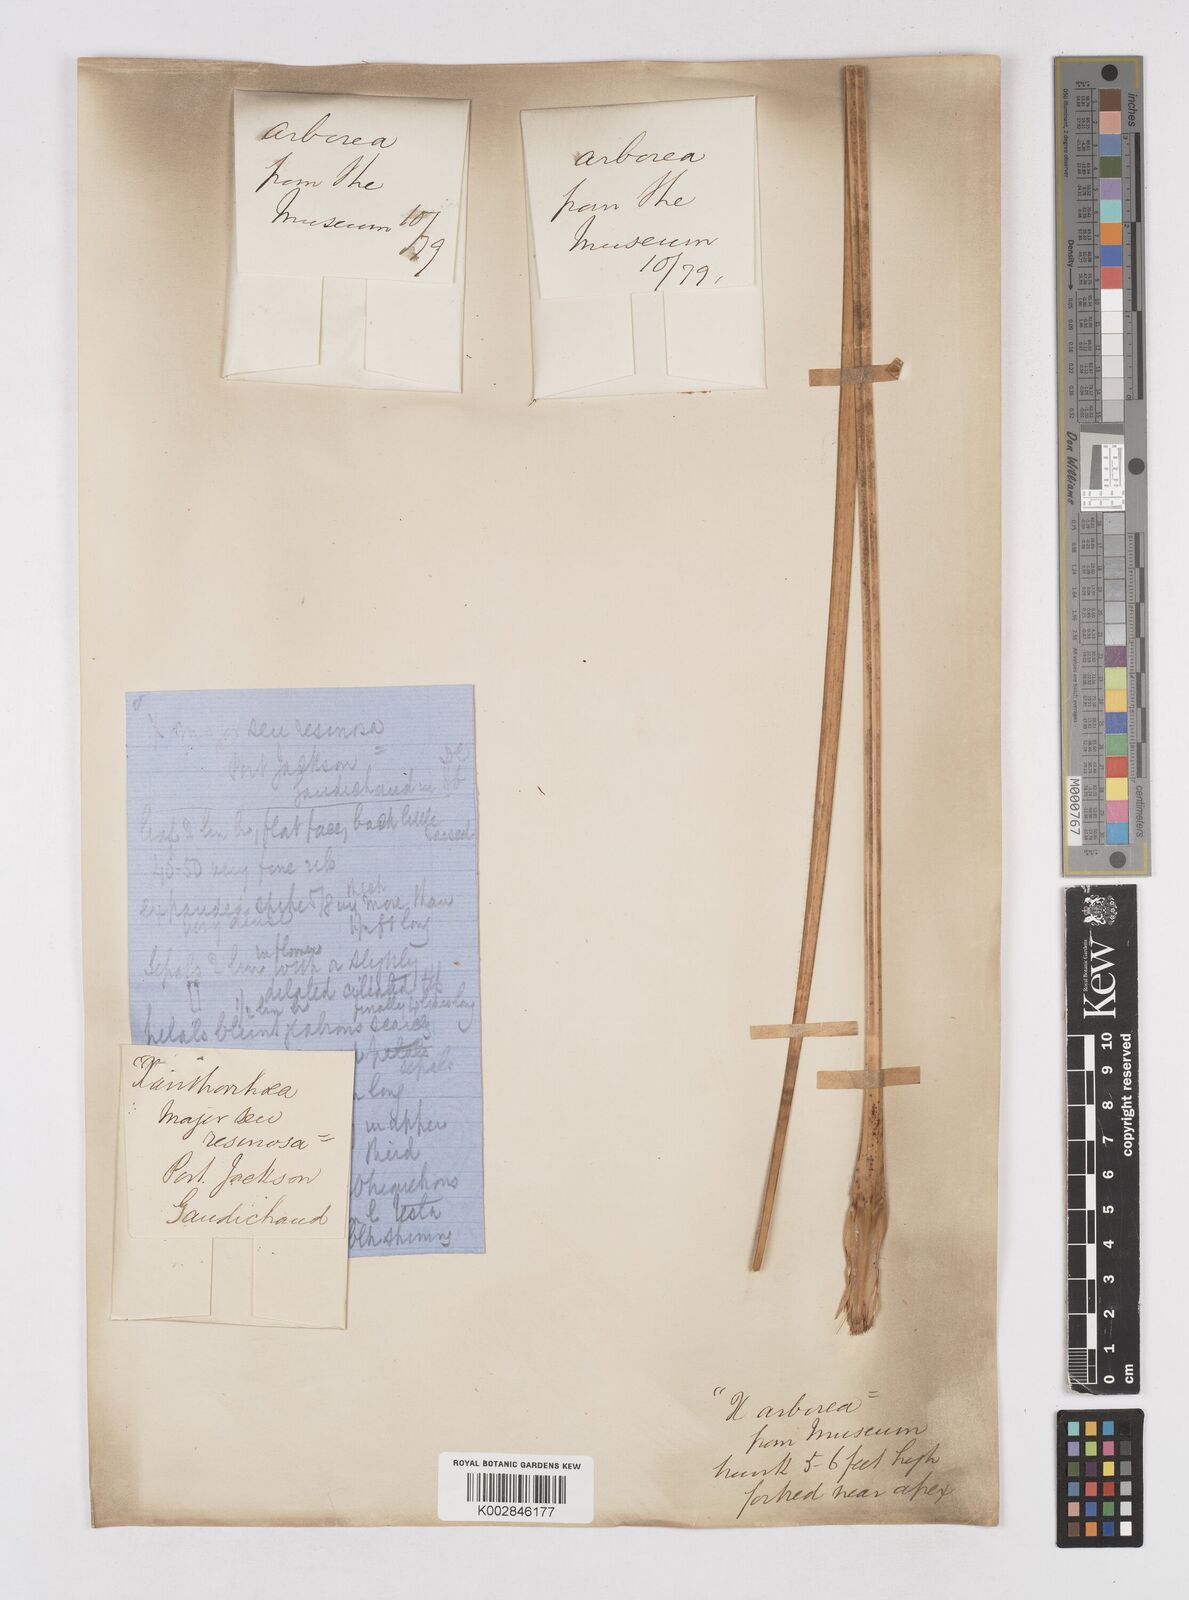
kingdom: Plantae
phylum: Tracheophyta
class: Liliopsida
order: Asparagales
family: Asphodelaceae
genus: Xanthorrhoea
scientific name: Xanthorrhoea arborea
